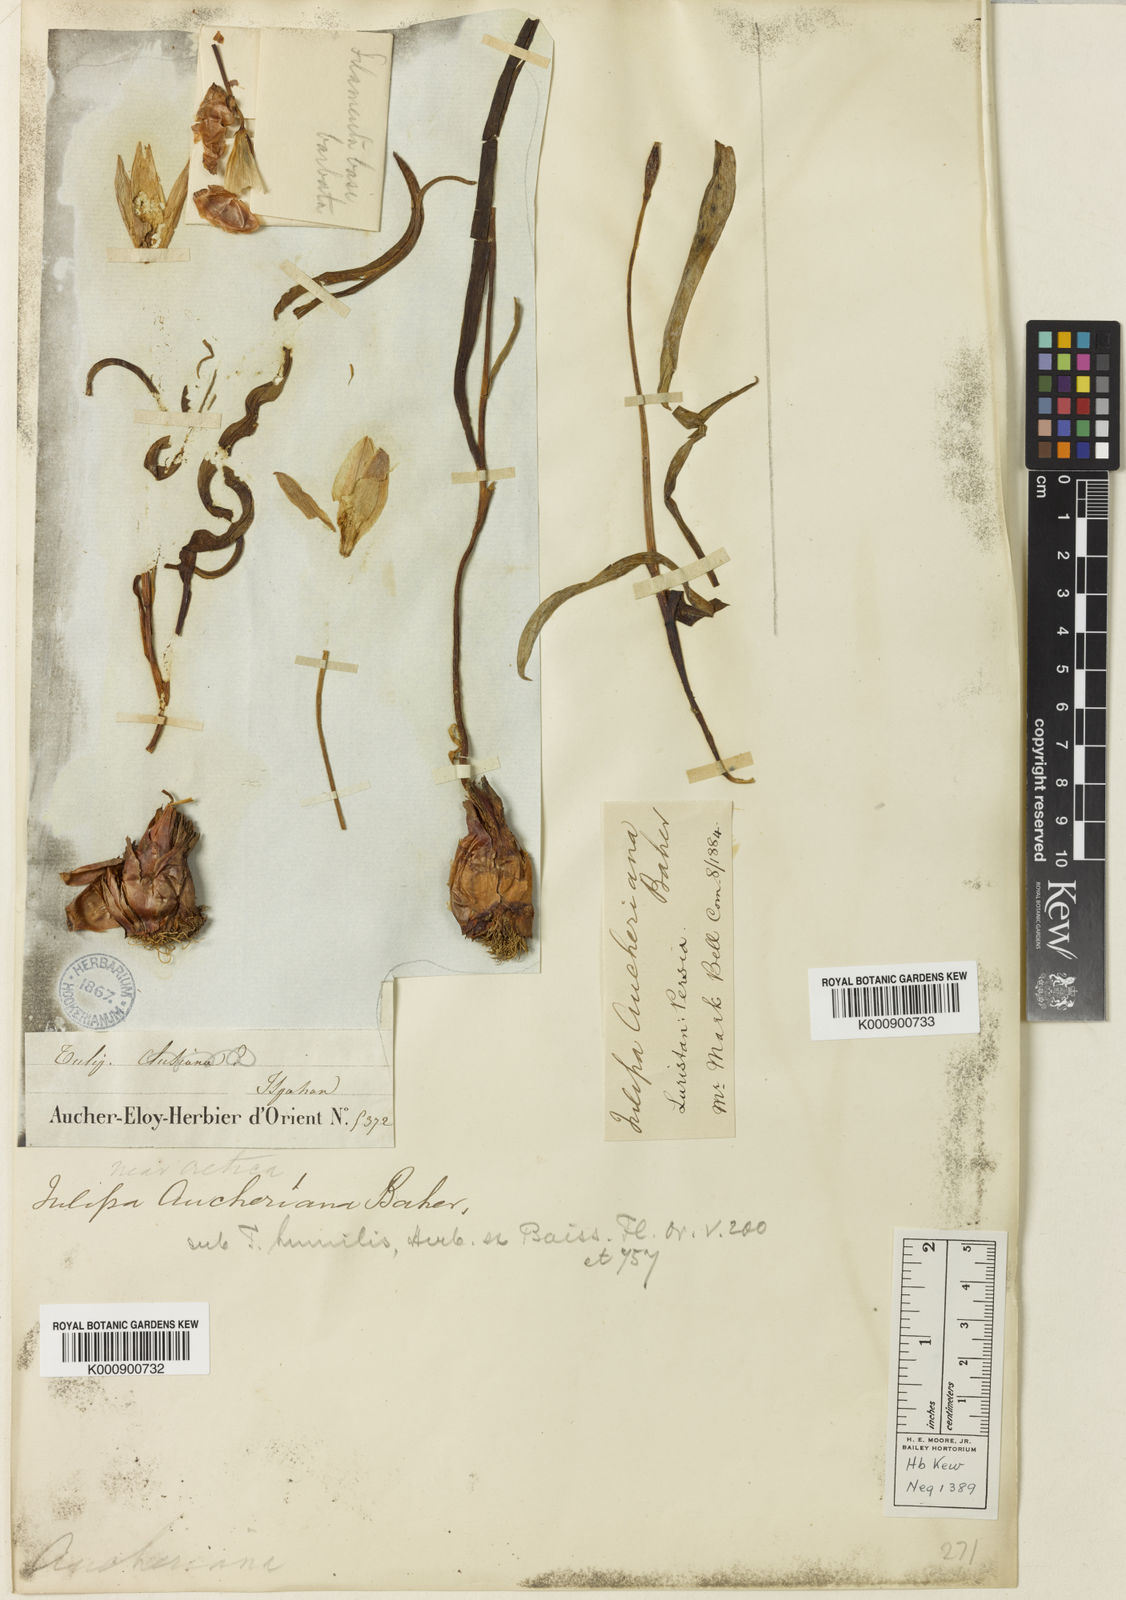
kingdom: Plantae
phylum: Tracheophyta
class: Liliopsida
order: Liliales
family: Liliaceae
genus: Tulipa
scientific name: Tulipa humilis
